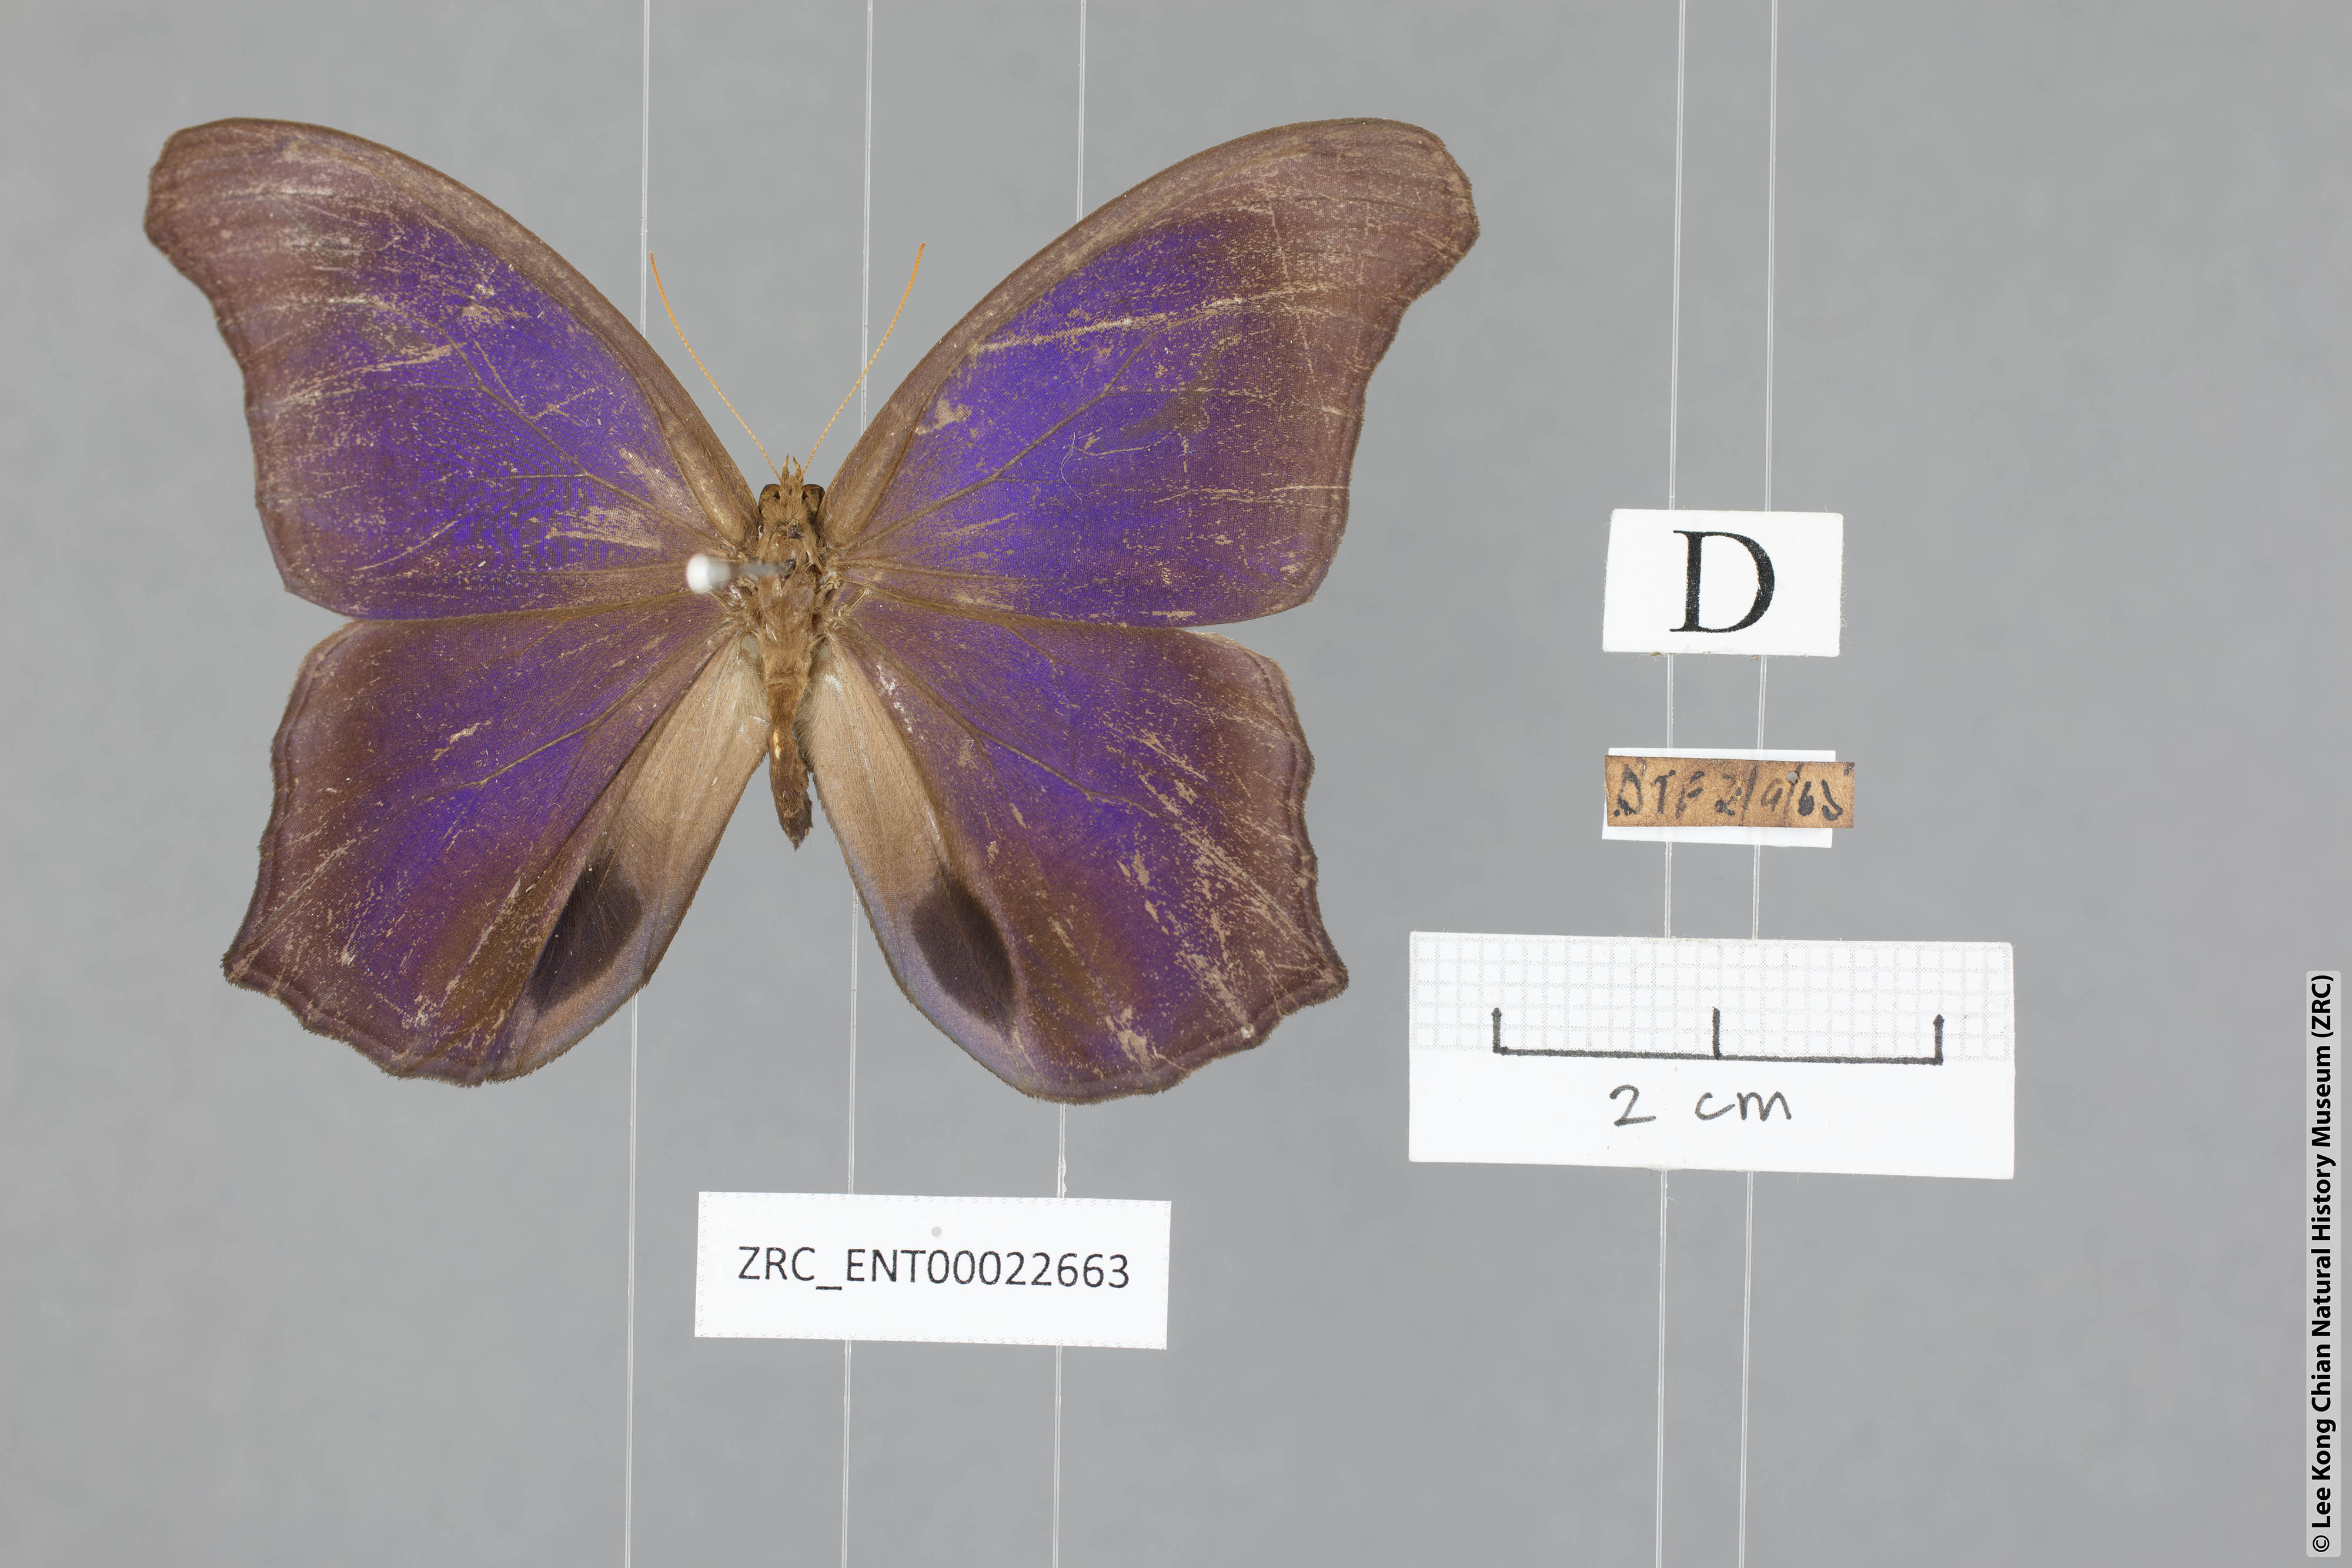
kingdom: Animalia
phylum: Arthropoda
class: Insecta
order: Lepidoptera
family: Nymphalidae
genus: Coelites
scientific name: Coelites epiminthia
